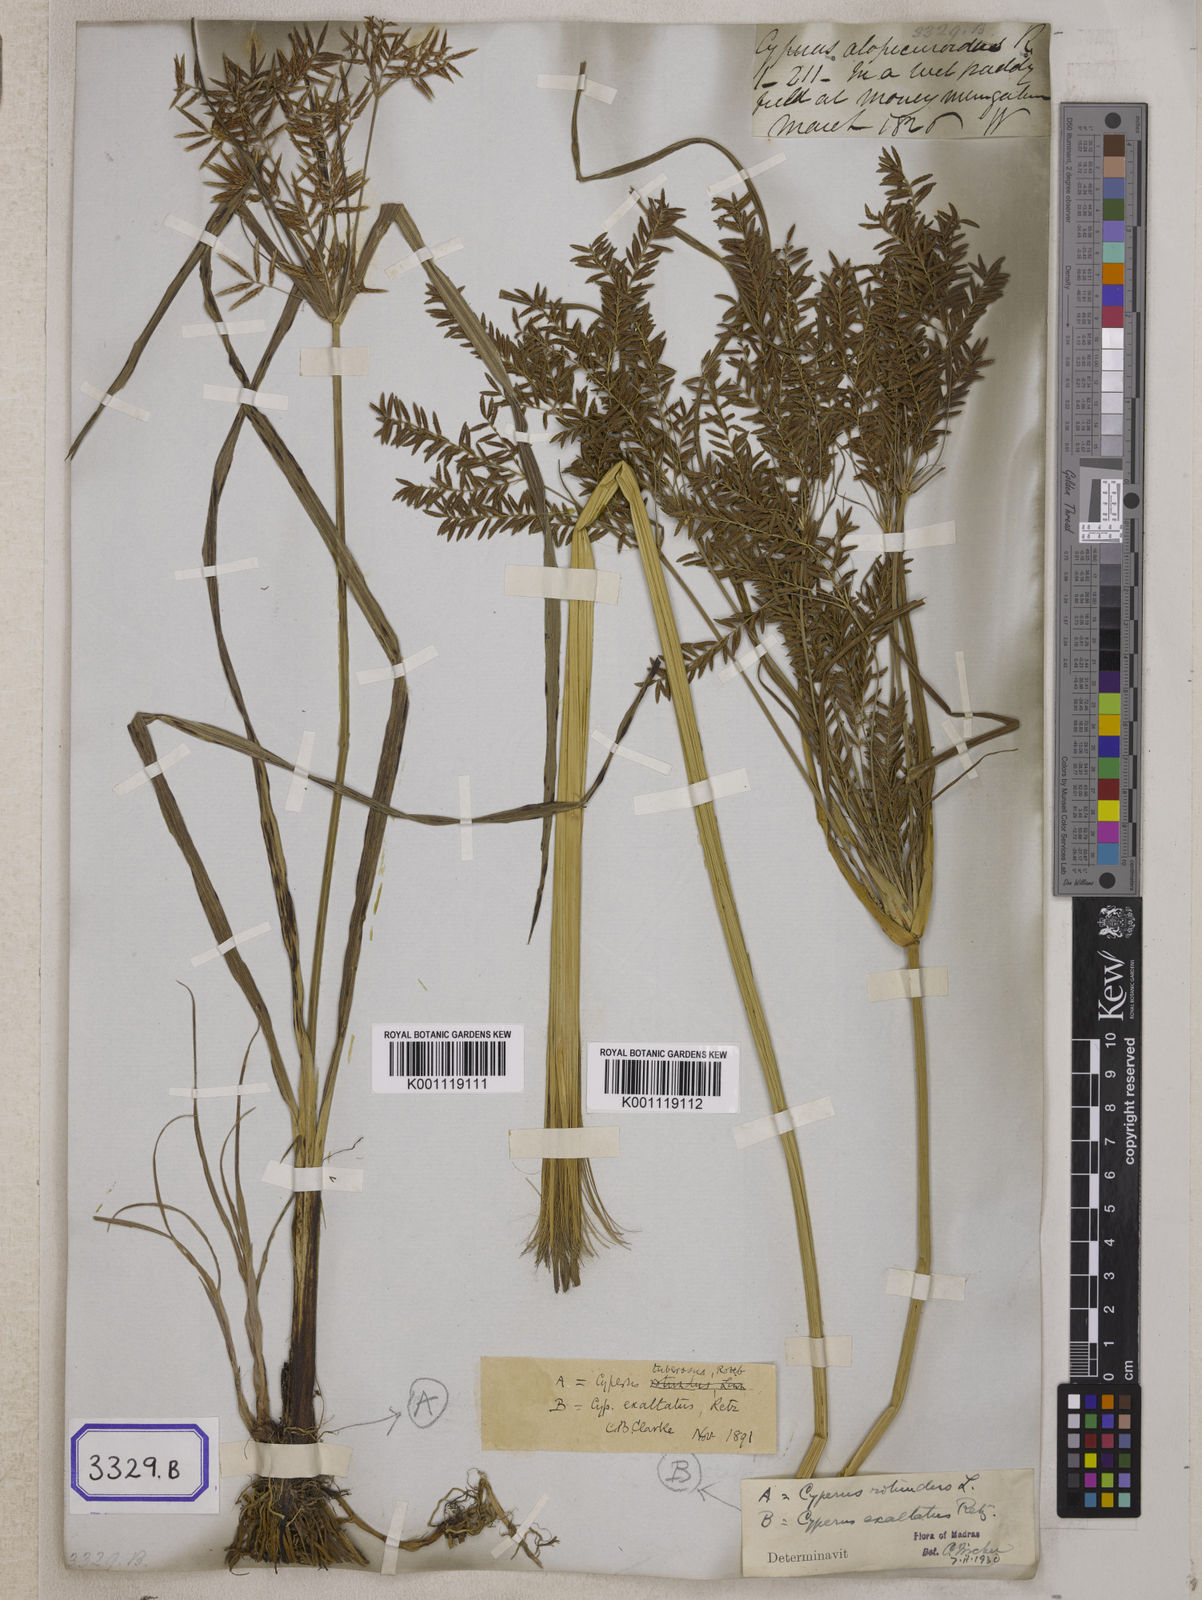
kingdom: Plantae
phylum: Tracheophyta
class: Liliopsida
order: Poales
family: Cyperaceae
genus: Cyperus
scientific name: Cyperus
